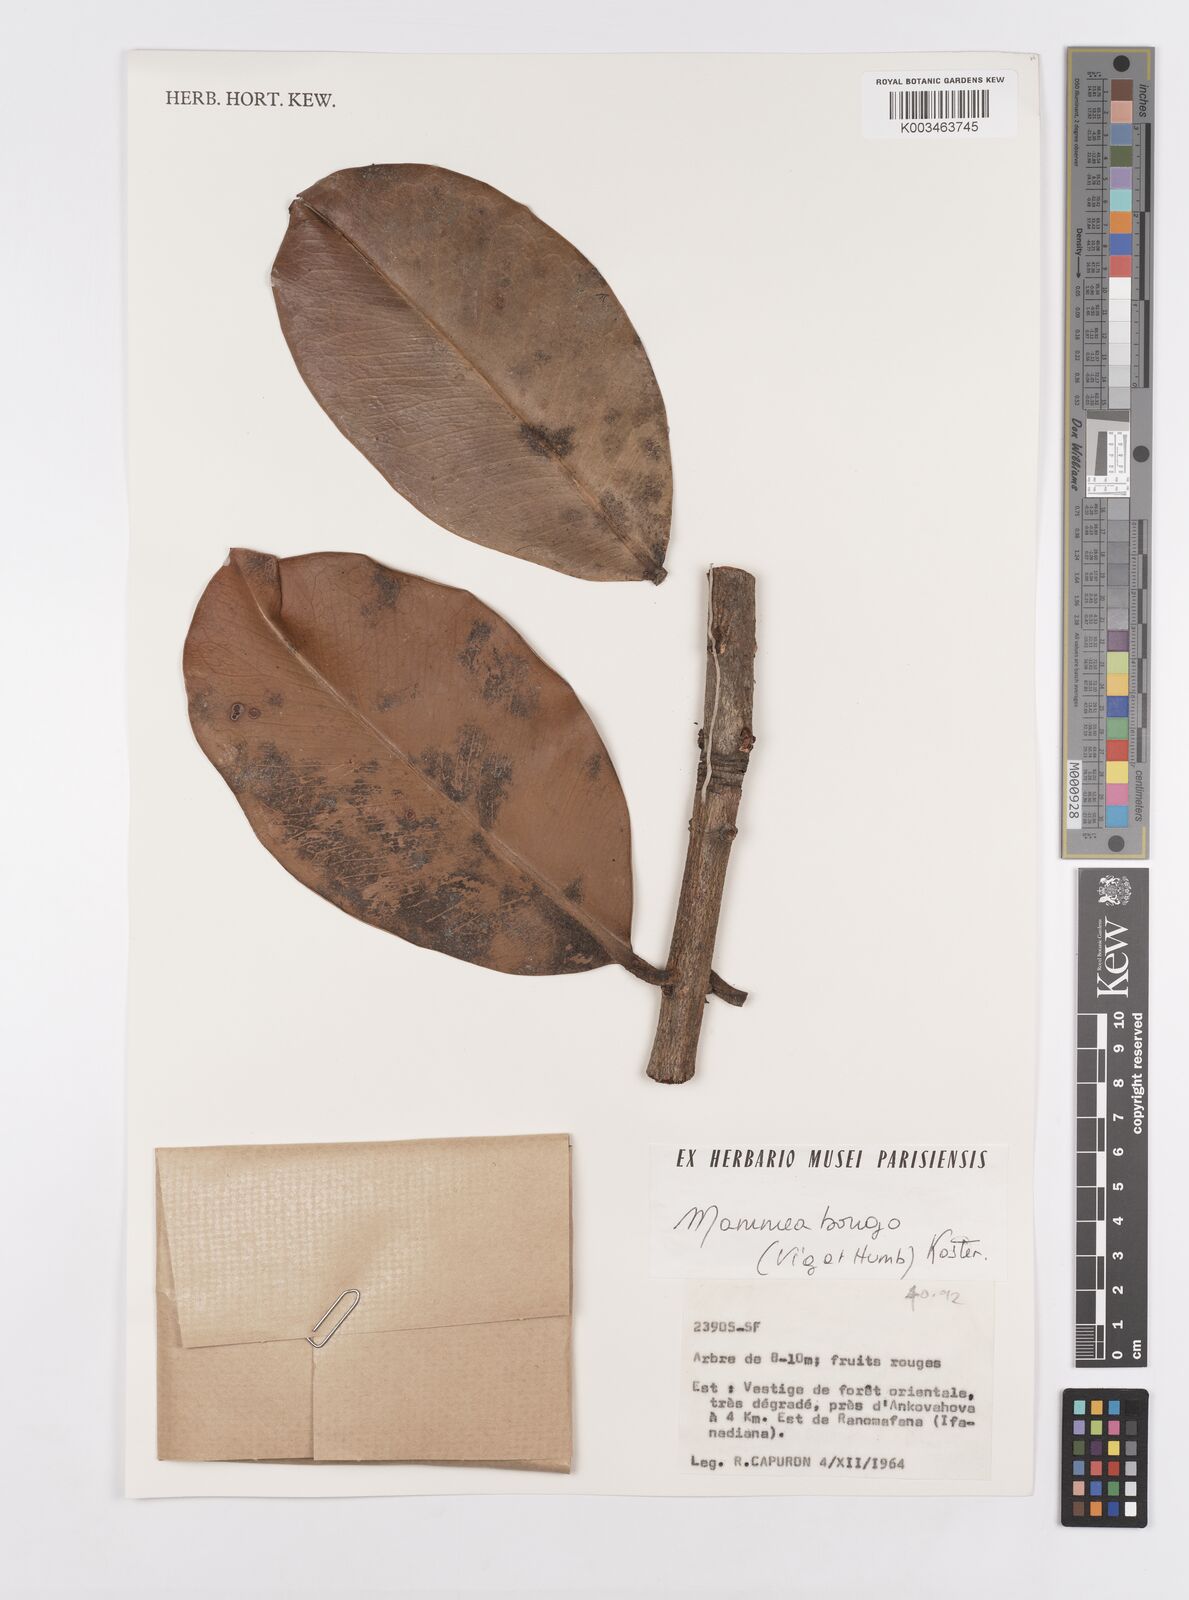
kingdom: Plantae
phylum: Tracheophyta
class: Magnoliopsida
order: Malpighiales
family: Calophyllaceae
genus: Mammea
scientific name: Mammea bongo
